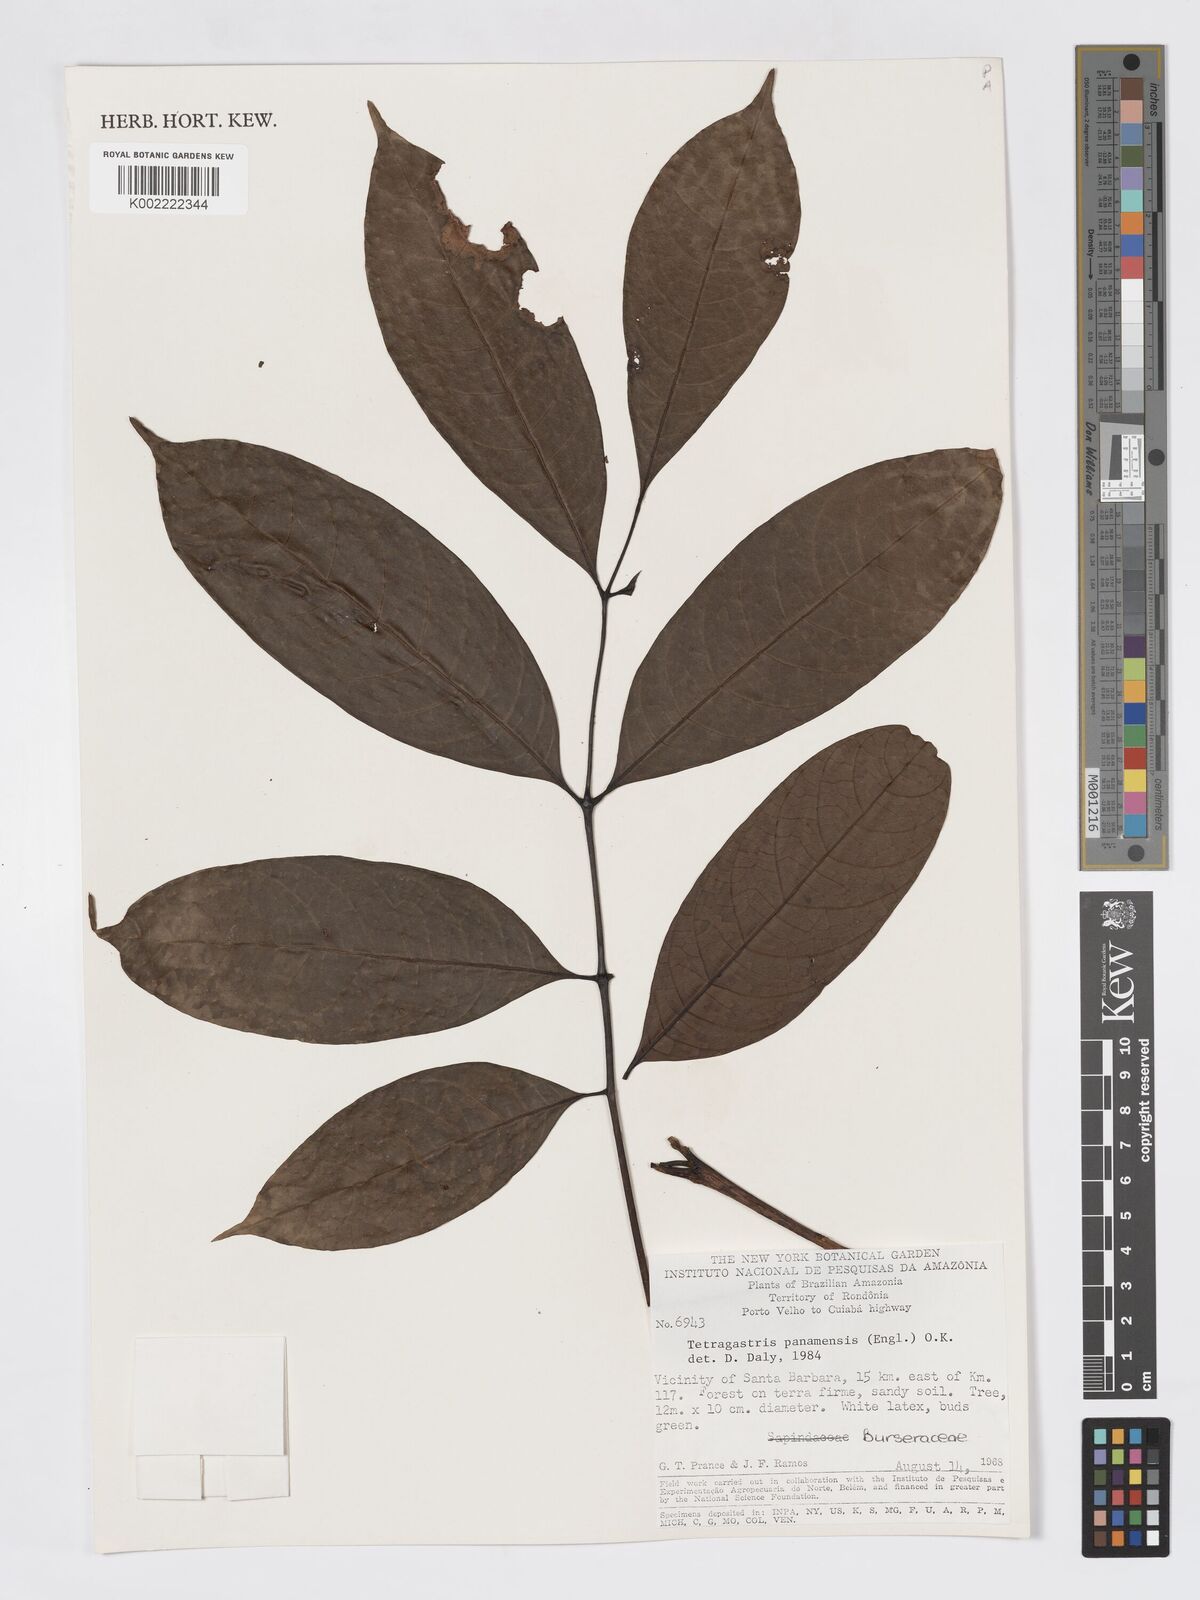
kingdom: Plantae
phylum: Tracheophyta
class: Magnoliopsida
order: Sapindales
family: Burseraceae
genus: Tetragastris
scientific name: Tetragastris panamensis
